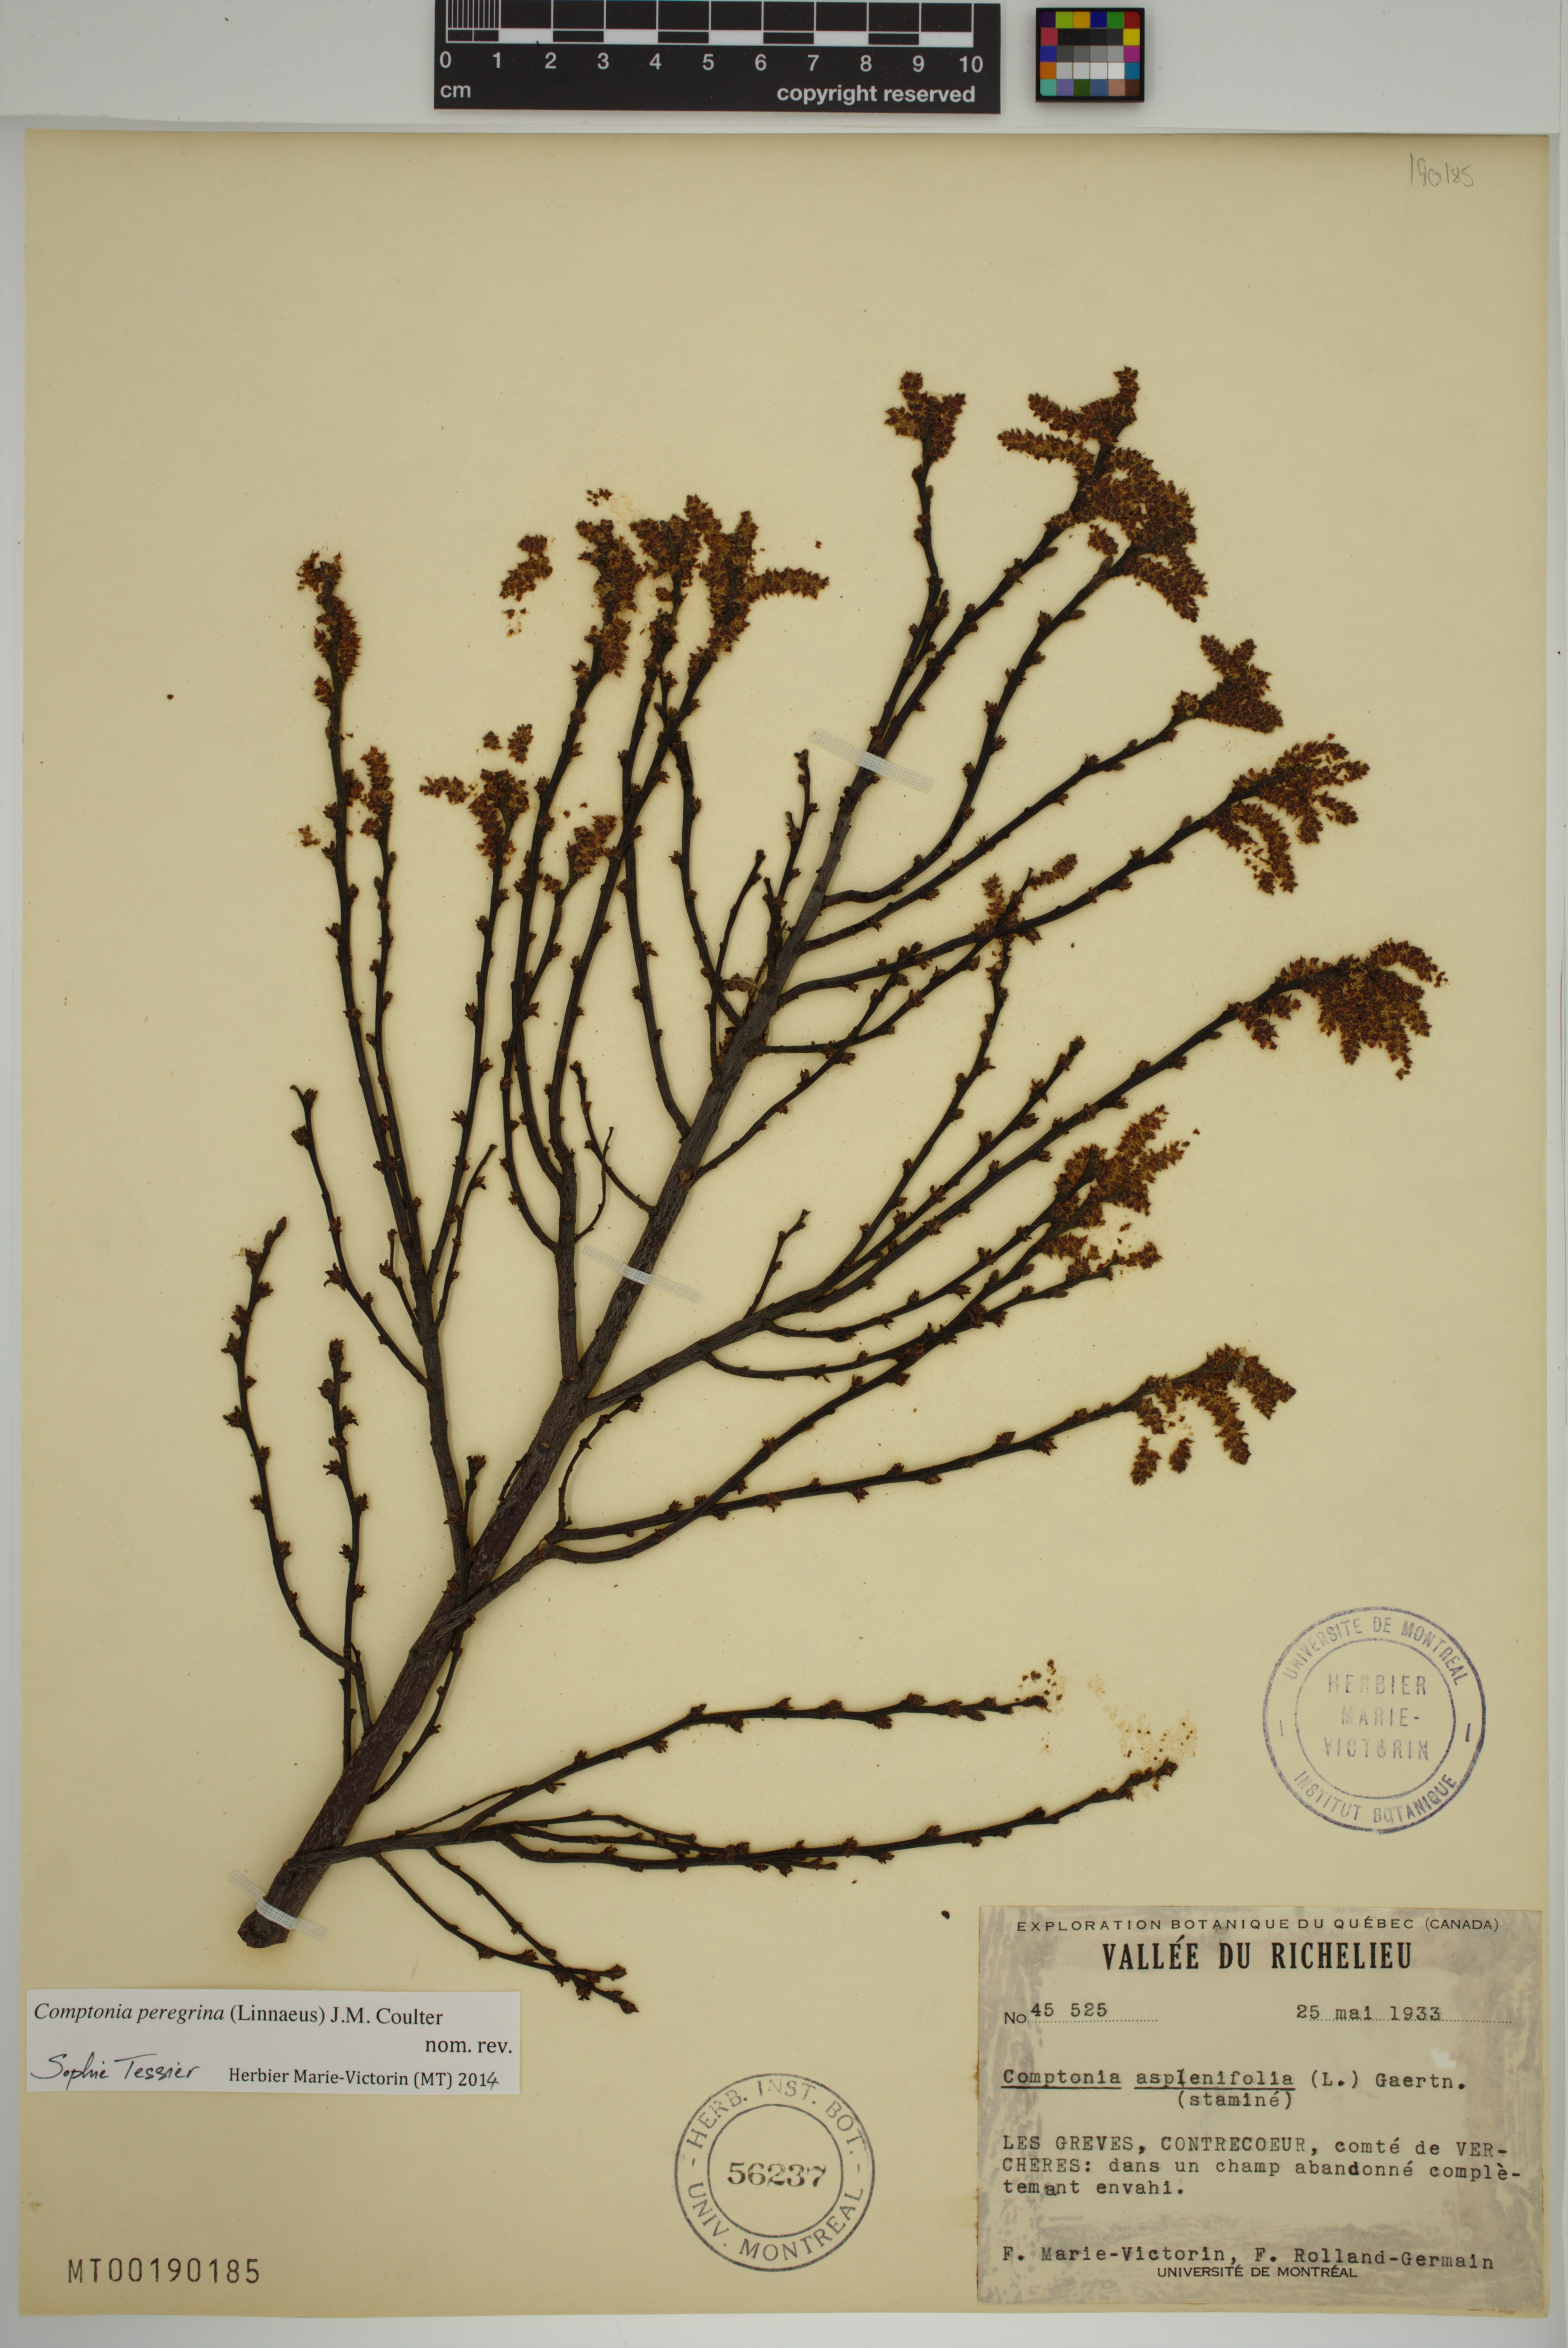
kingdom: Plantae
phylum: Tracheophyta
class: Magnoliopsida
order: Fagales
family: Myricaceae
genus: Comptonia
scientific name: Comptonia peregrina
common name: Sweet-fern
